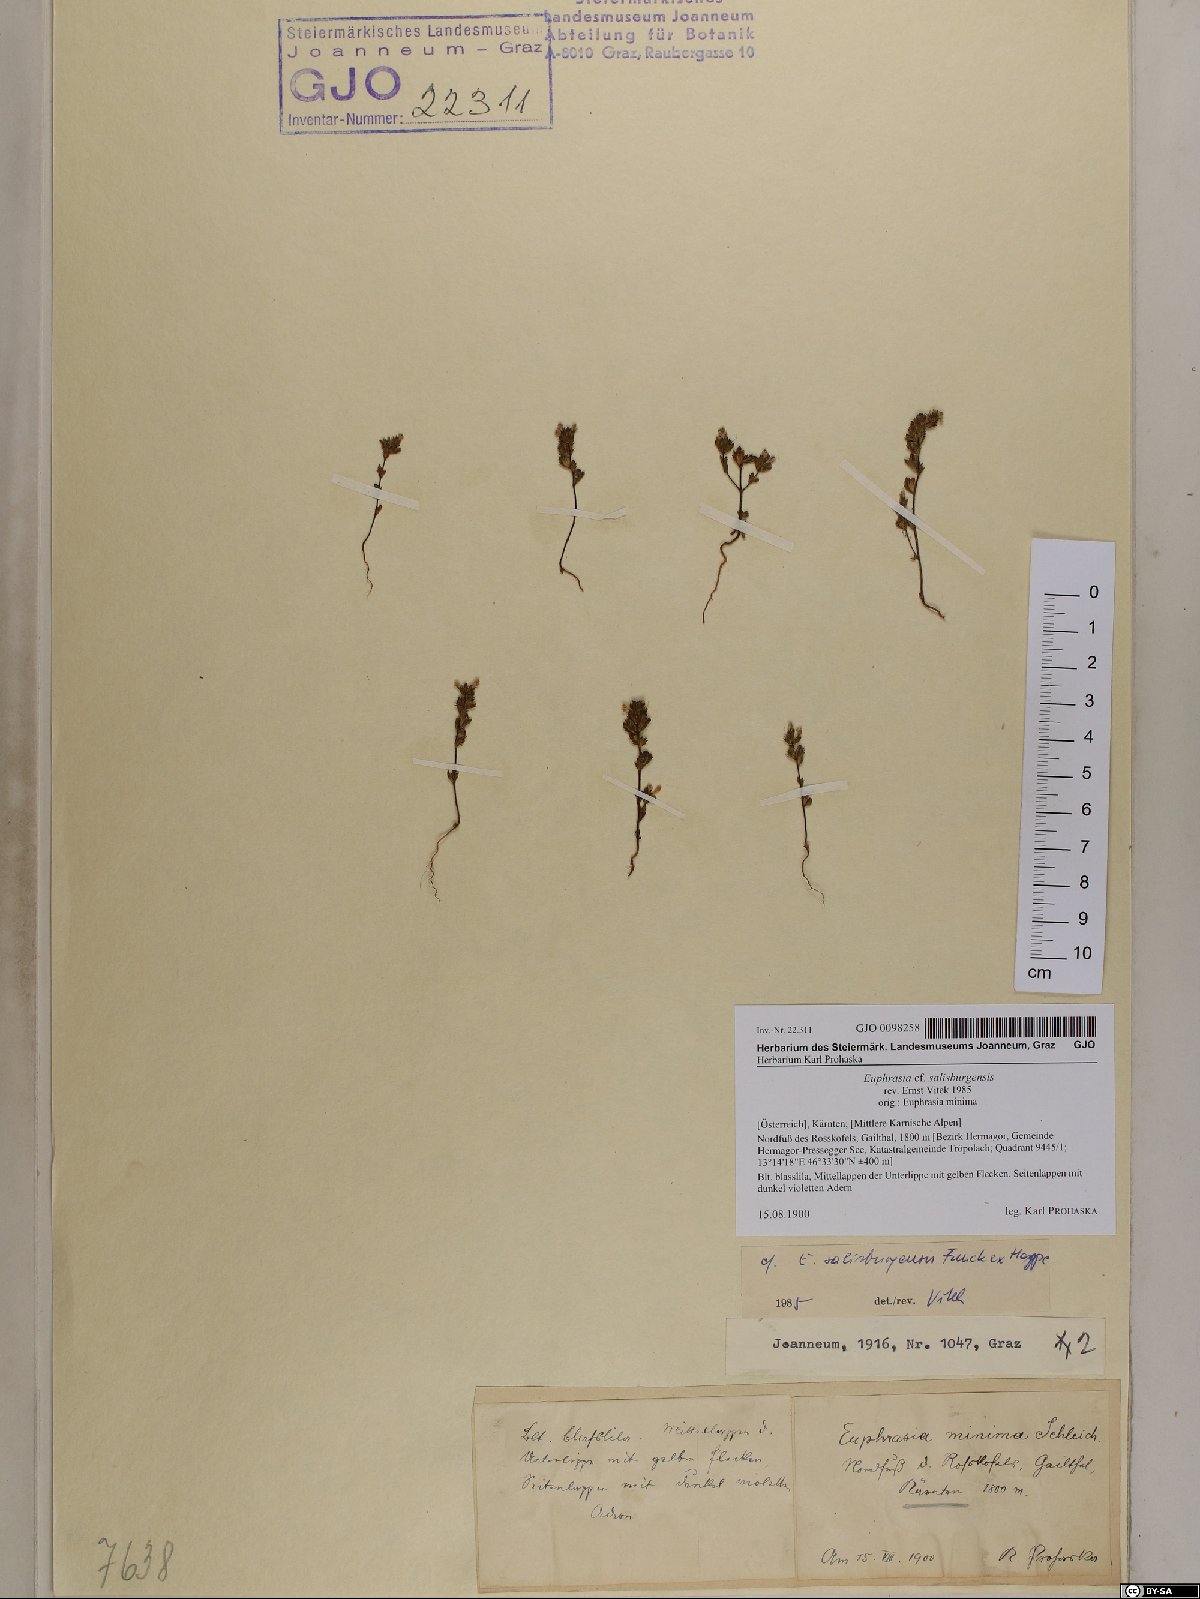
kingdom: Plantae
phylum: Tracheophyta
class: Magnoliopsida
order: Lamiales
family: Orobanchaceae
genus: Euphrasia
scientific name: Euphrasia salisburgensis
